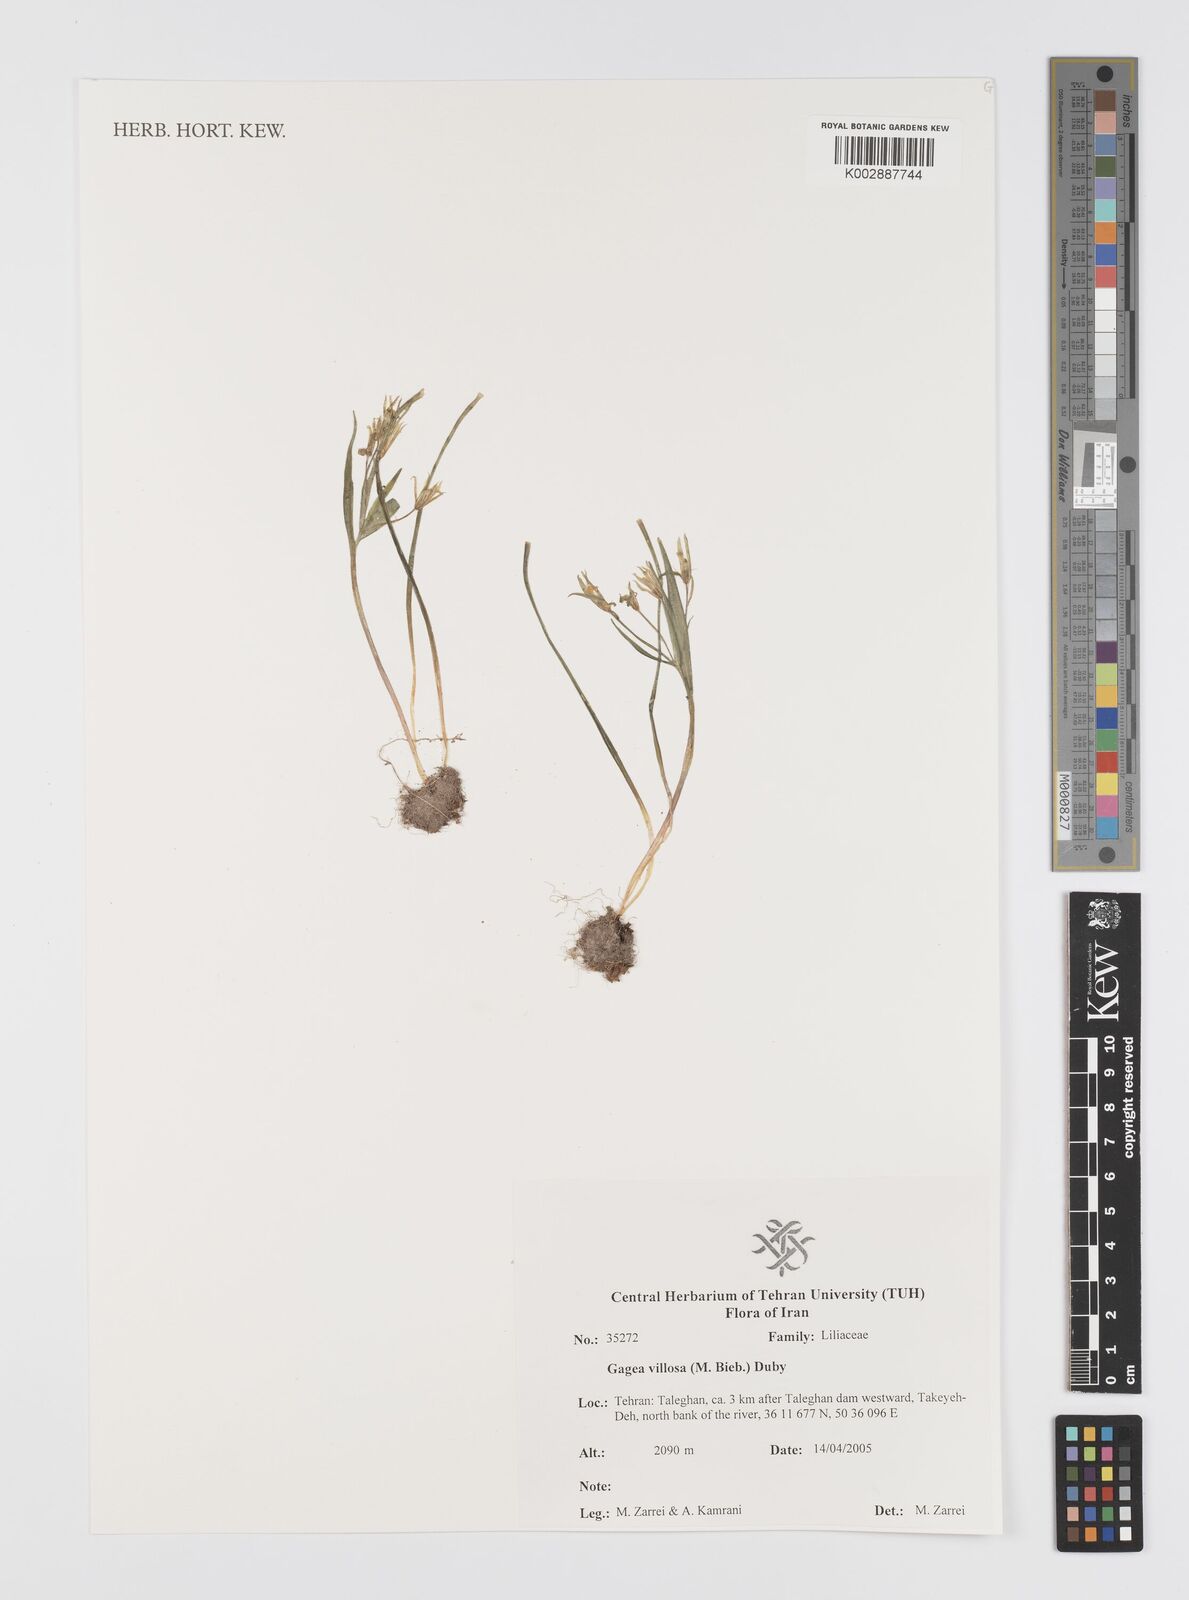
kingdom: Plantae
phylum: Tracheophyta
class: Liliopsida
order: Liliales
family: Liliaceae
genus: Gagea
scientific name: Gagea villosa
